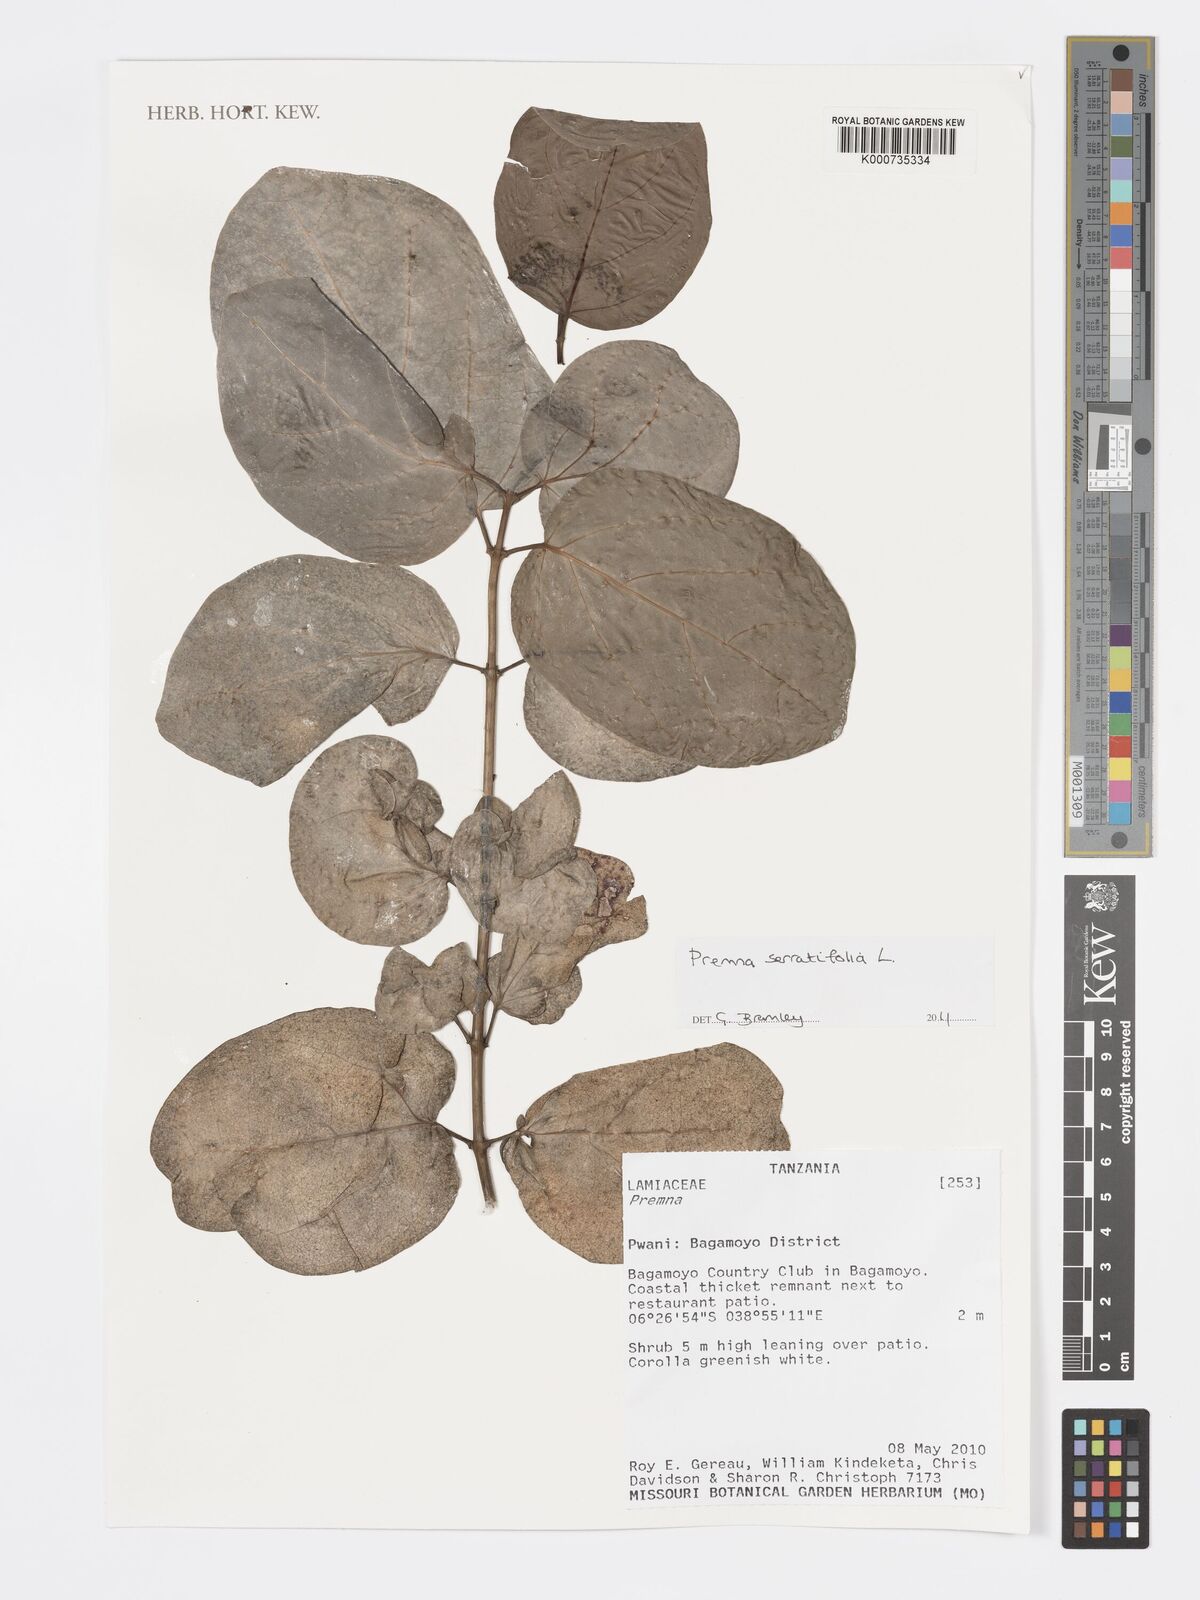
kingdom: Plantae
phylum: Tracheophyta
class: Magnoliopsida
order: Lamiales
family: Lamiaceae
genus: Premna
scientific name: Premna serratifolia
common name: Bastard guelder
